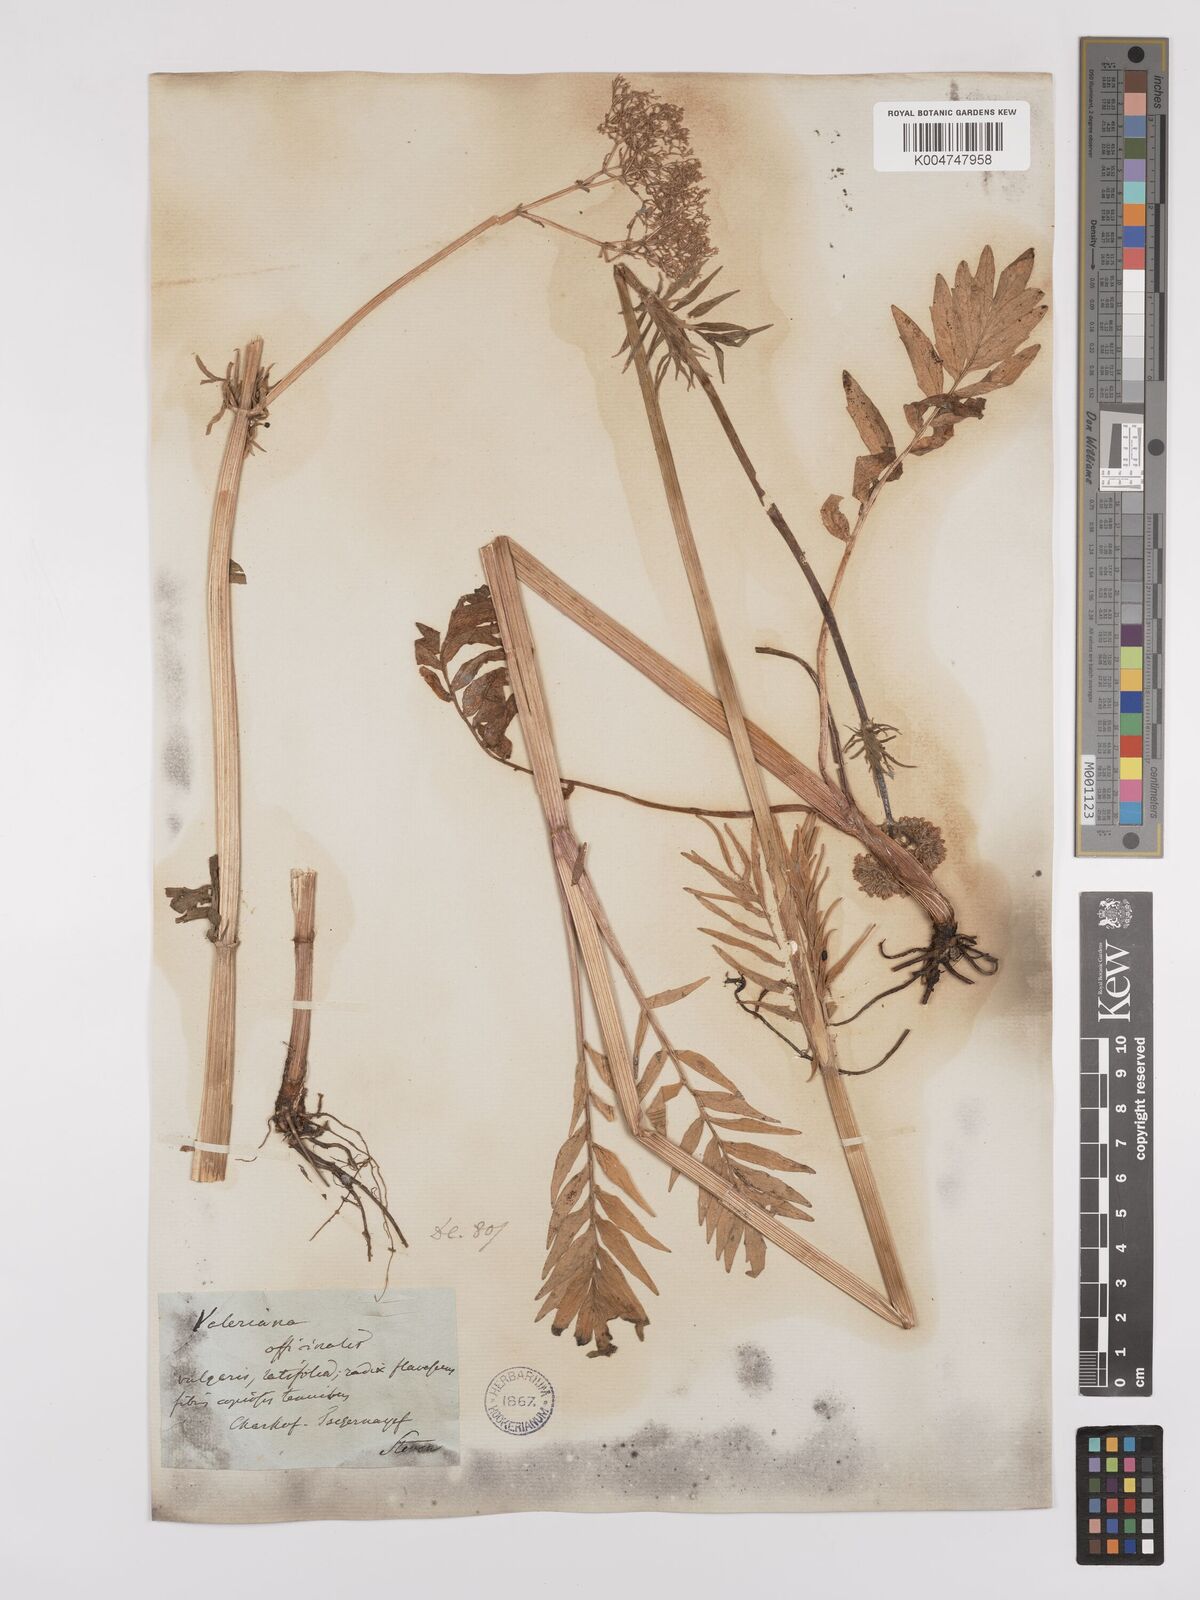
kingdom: Plantae
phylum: Tracheophyta
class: Magnoliopsida
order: Dipsacales
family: Caprifoliaceae
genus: Valeriana
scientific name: Valeriana officinalis
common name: Common valerian
